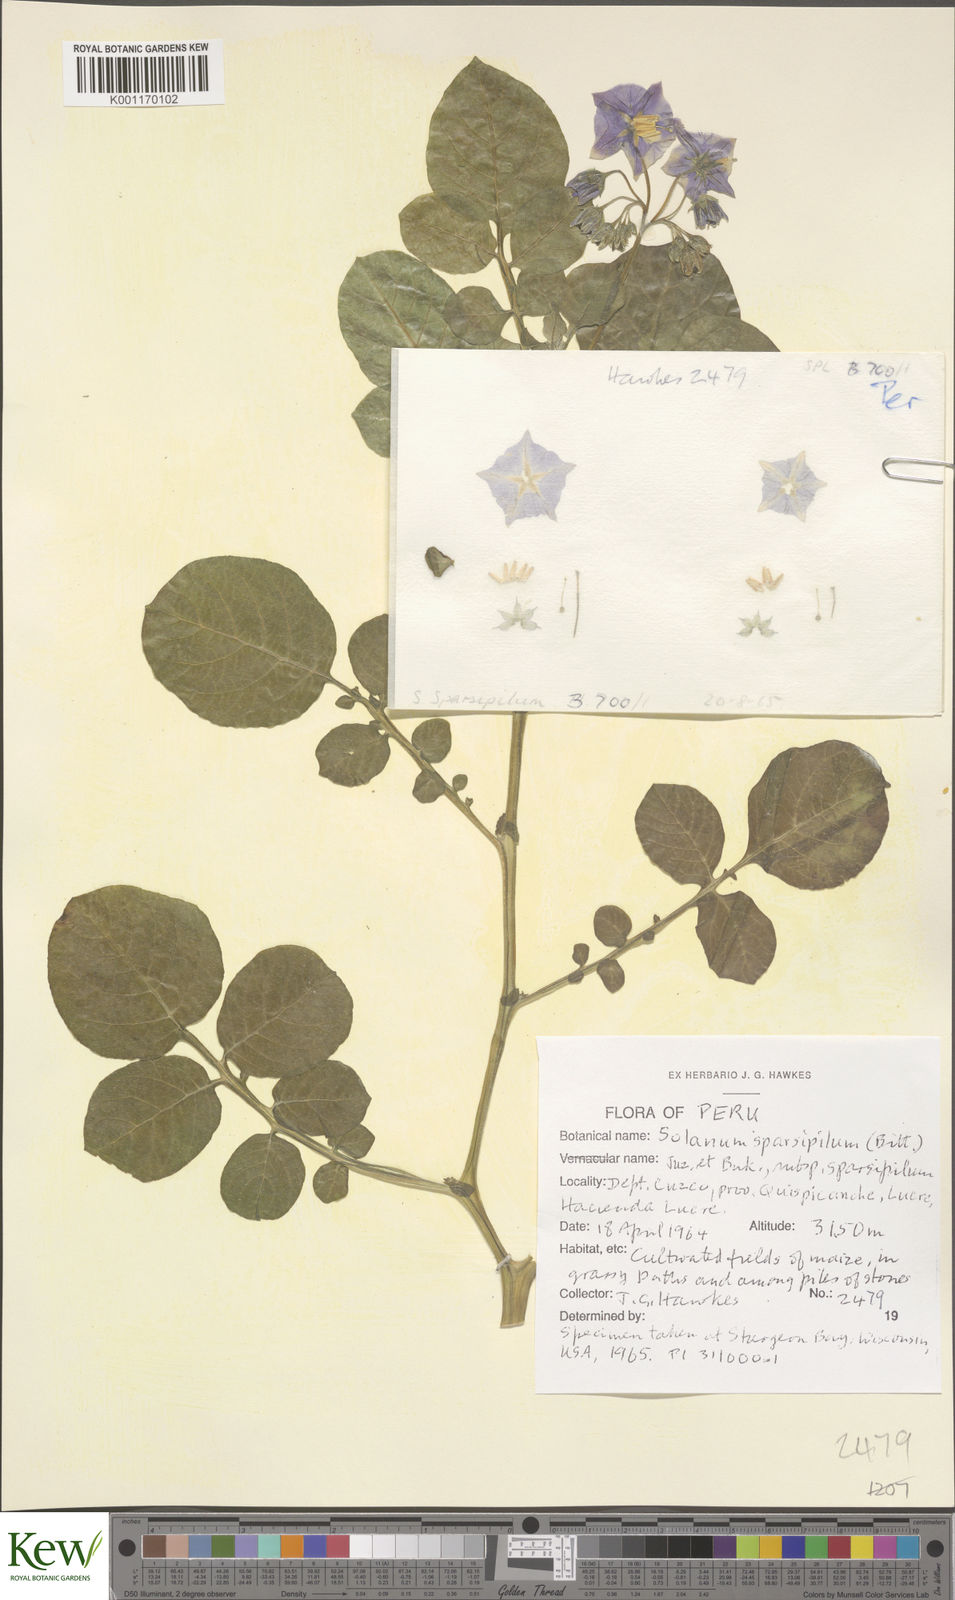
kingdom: Plantae
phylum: Tracheophyta
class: Magnoliopsida
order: Solanales
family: Solanaceae
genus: Solanum
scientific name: Solanum brevicaule
